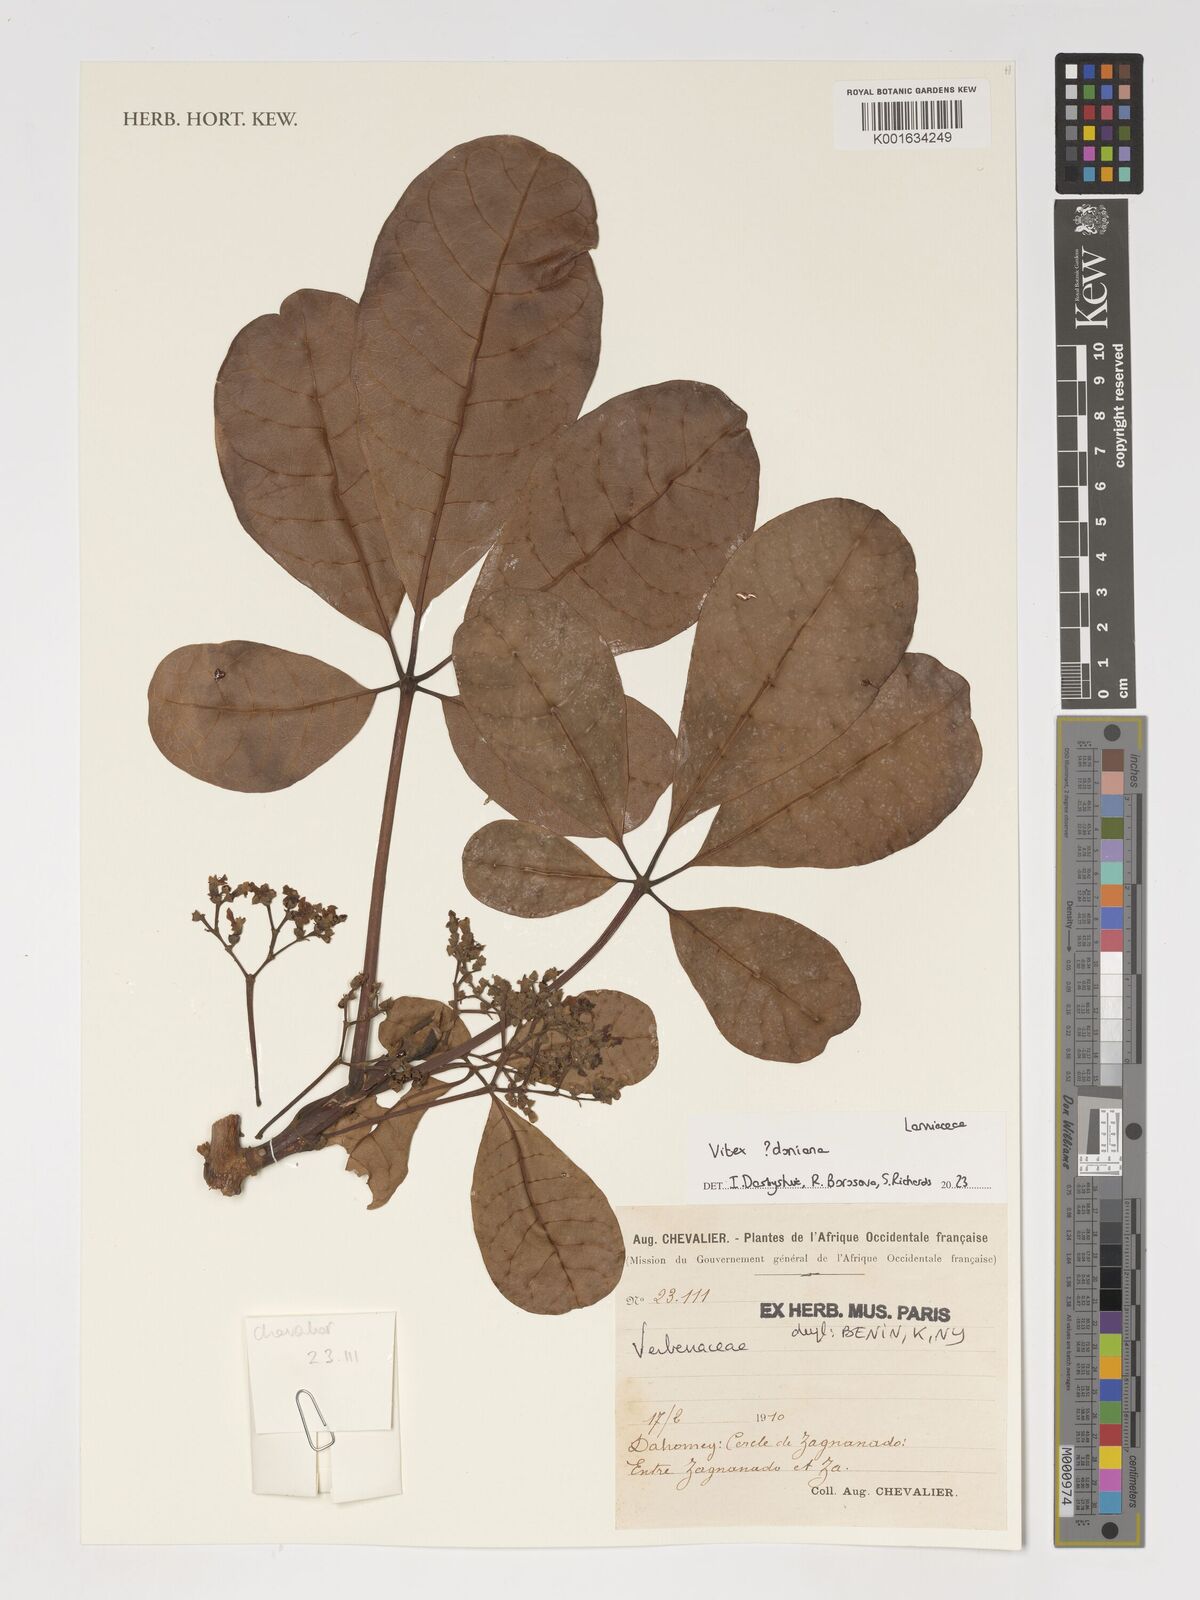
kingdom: Plantae
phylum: Tracheophyta
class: Magnoliopsida
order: Lamiales
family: Lamiaceae
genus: Vitex
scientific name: Vitex doniana
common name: Black plum
